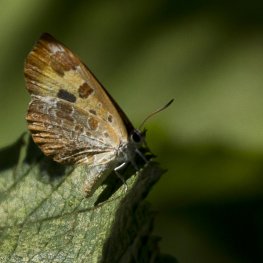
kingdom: Animalia
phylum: Arthropoda
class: Insecta
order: Lepidoptera
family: Lycaenidae
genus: Feniseca
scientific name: Feniseca tarquinius
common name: Harvester
